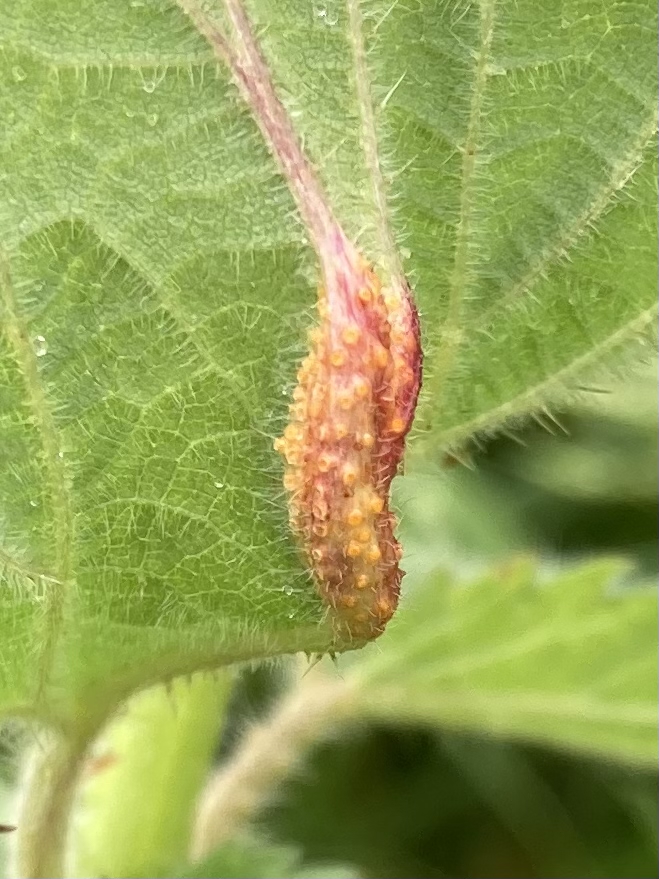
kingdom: Fungi
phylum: Basidiomycota
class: Pucciniomycetes
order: Pucciniales
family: Pucciniaceae
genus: Puccinia
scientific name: Puccinia urticata
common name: nældegalle-tvecellerust
